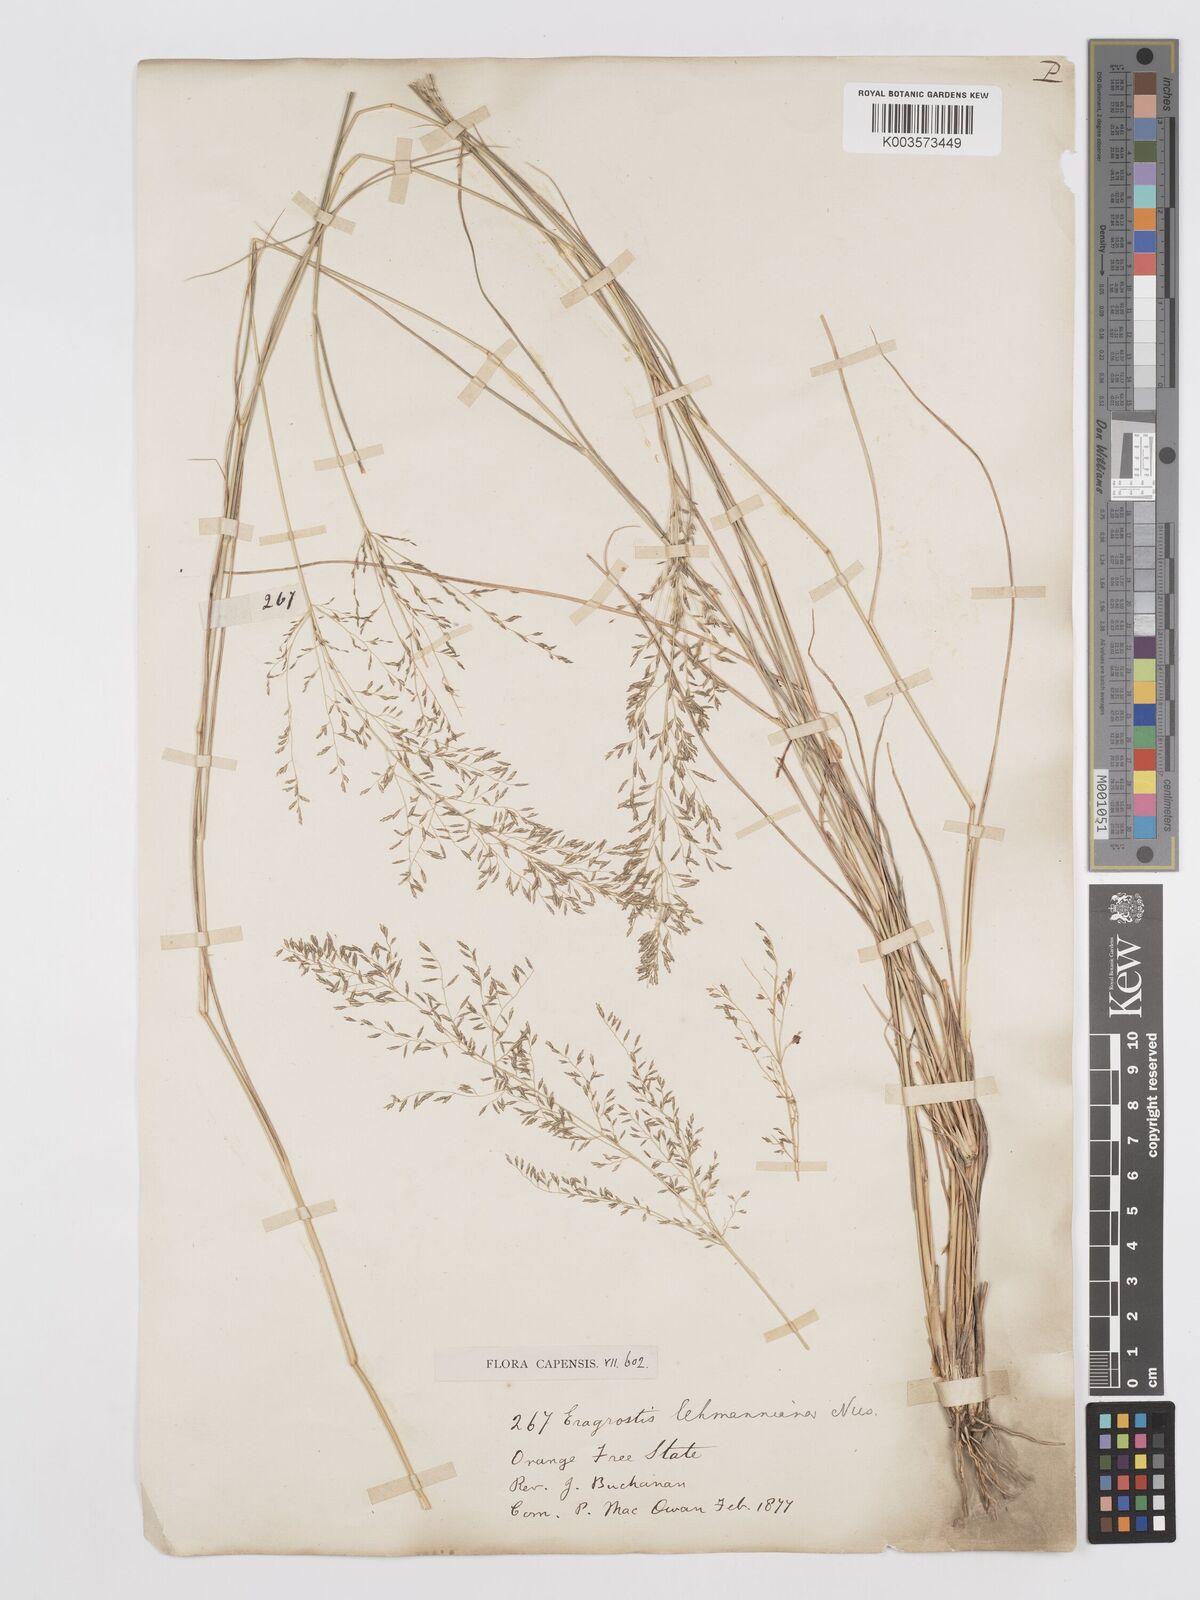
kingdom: Plantae
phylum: Tracheophyta
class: Liliopsida
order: Poales
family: Poaceae
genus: Eragrostis
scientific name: Eragrostis lehmanniana
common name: Lehmann lovegrass
